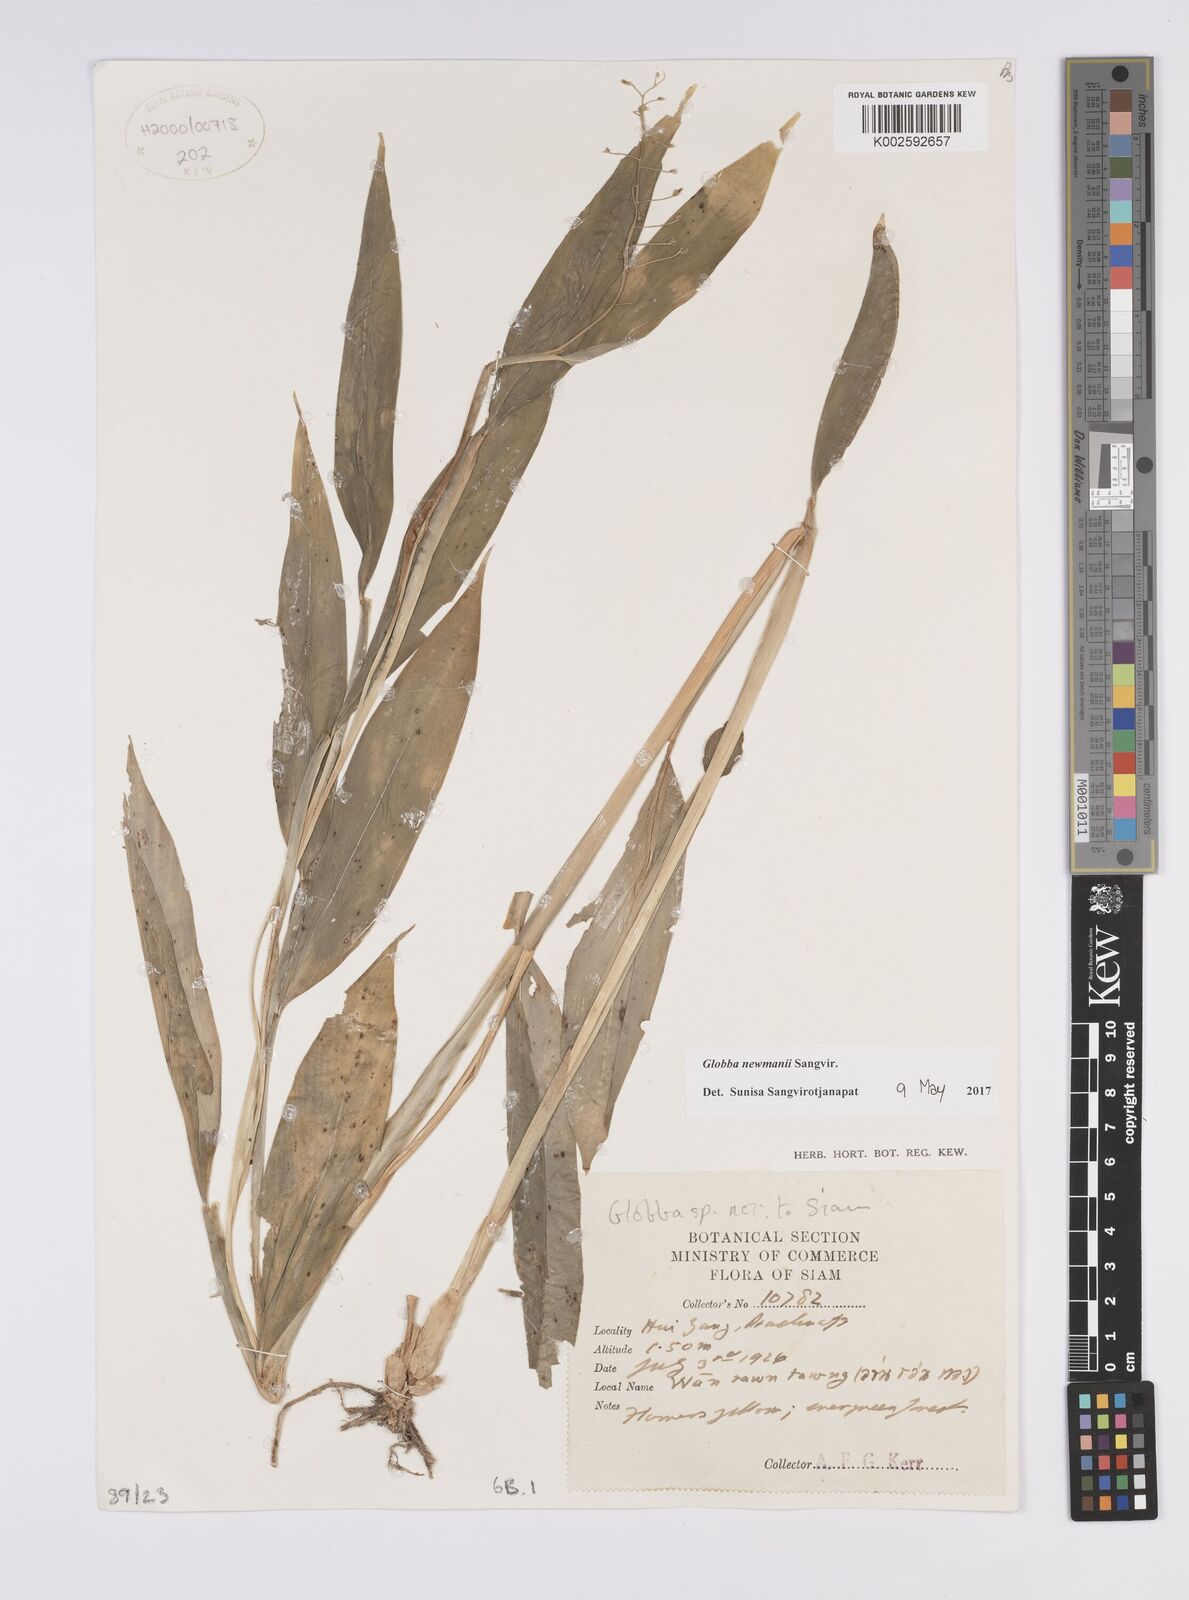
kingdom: Plantae
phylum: Tracheophyta
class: Liliopsida
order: Zingiberales
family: Zingiberaceae
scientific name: Zingiberaceae
